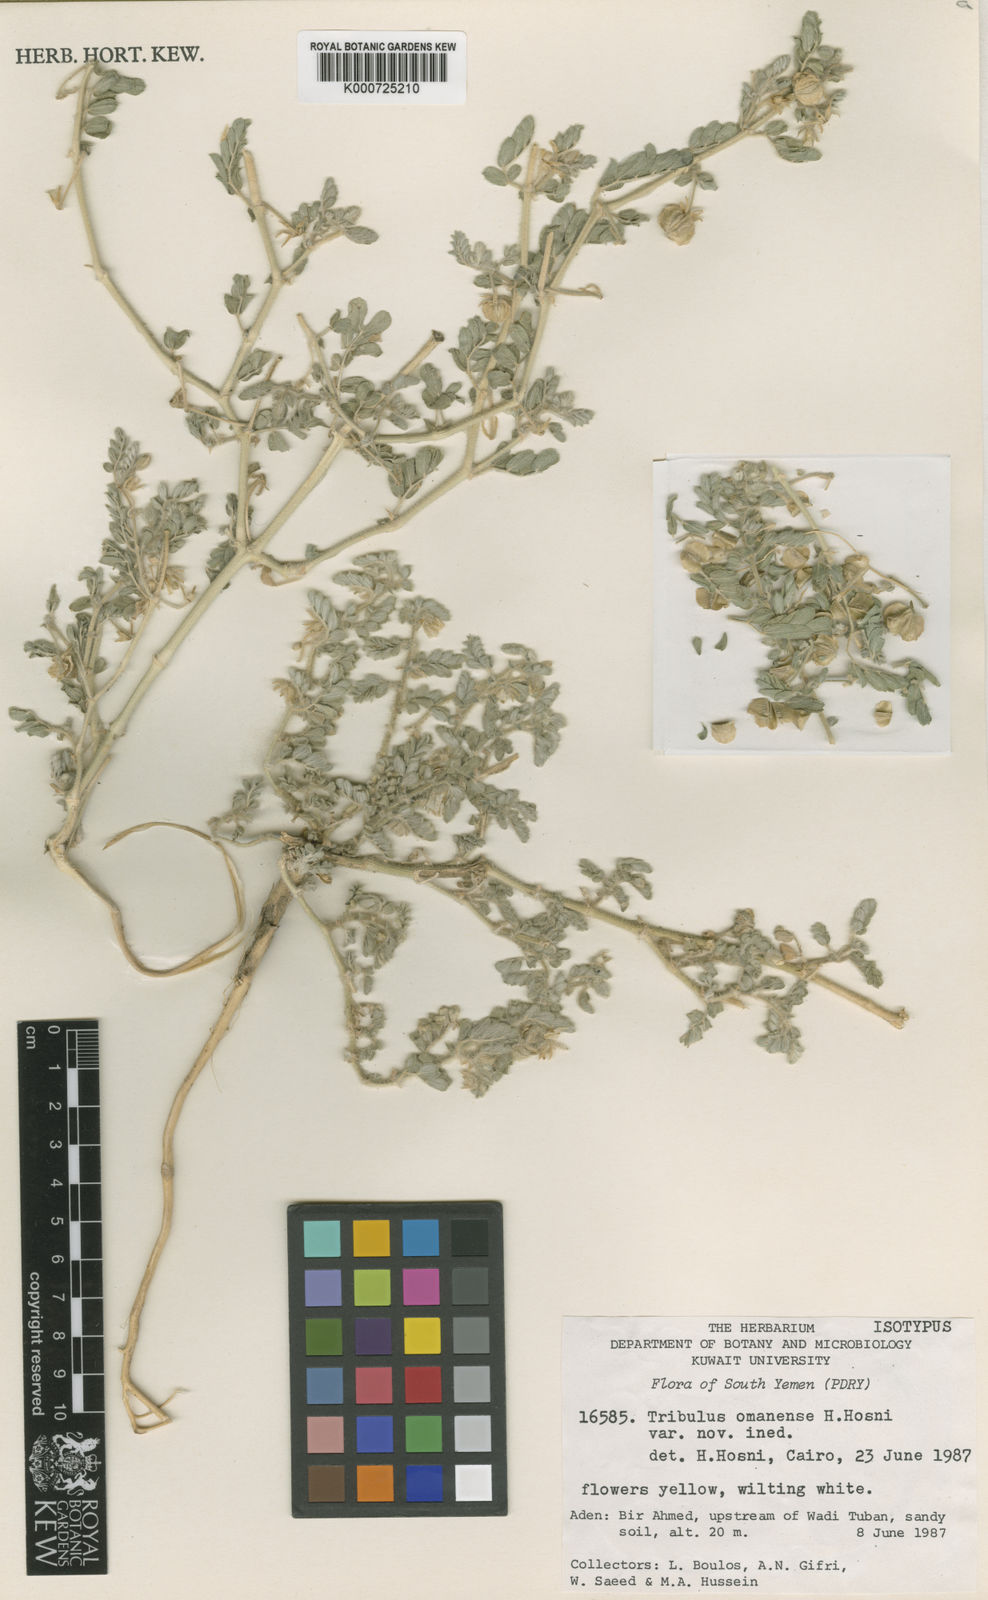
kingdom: Plantae
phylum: Tracheophyta
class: Magnoliopsida
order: Zygophyllales
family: Zygophyllaceae
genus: Tribulus
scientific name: Tribulus macropterus
